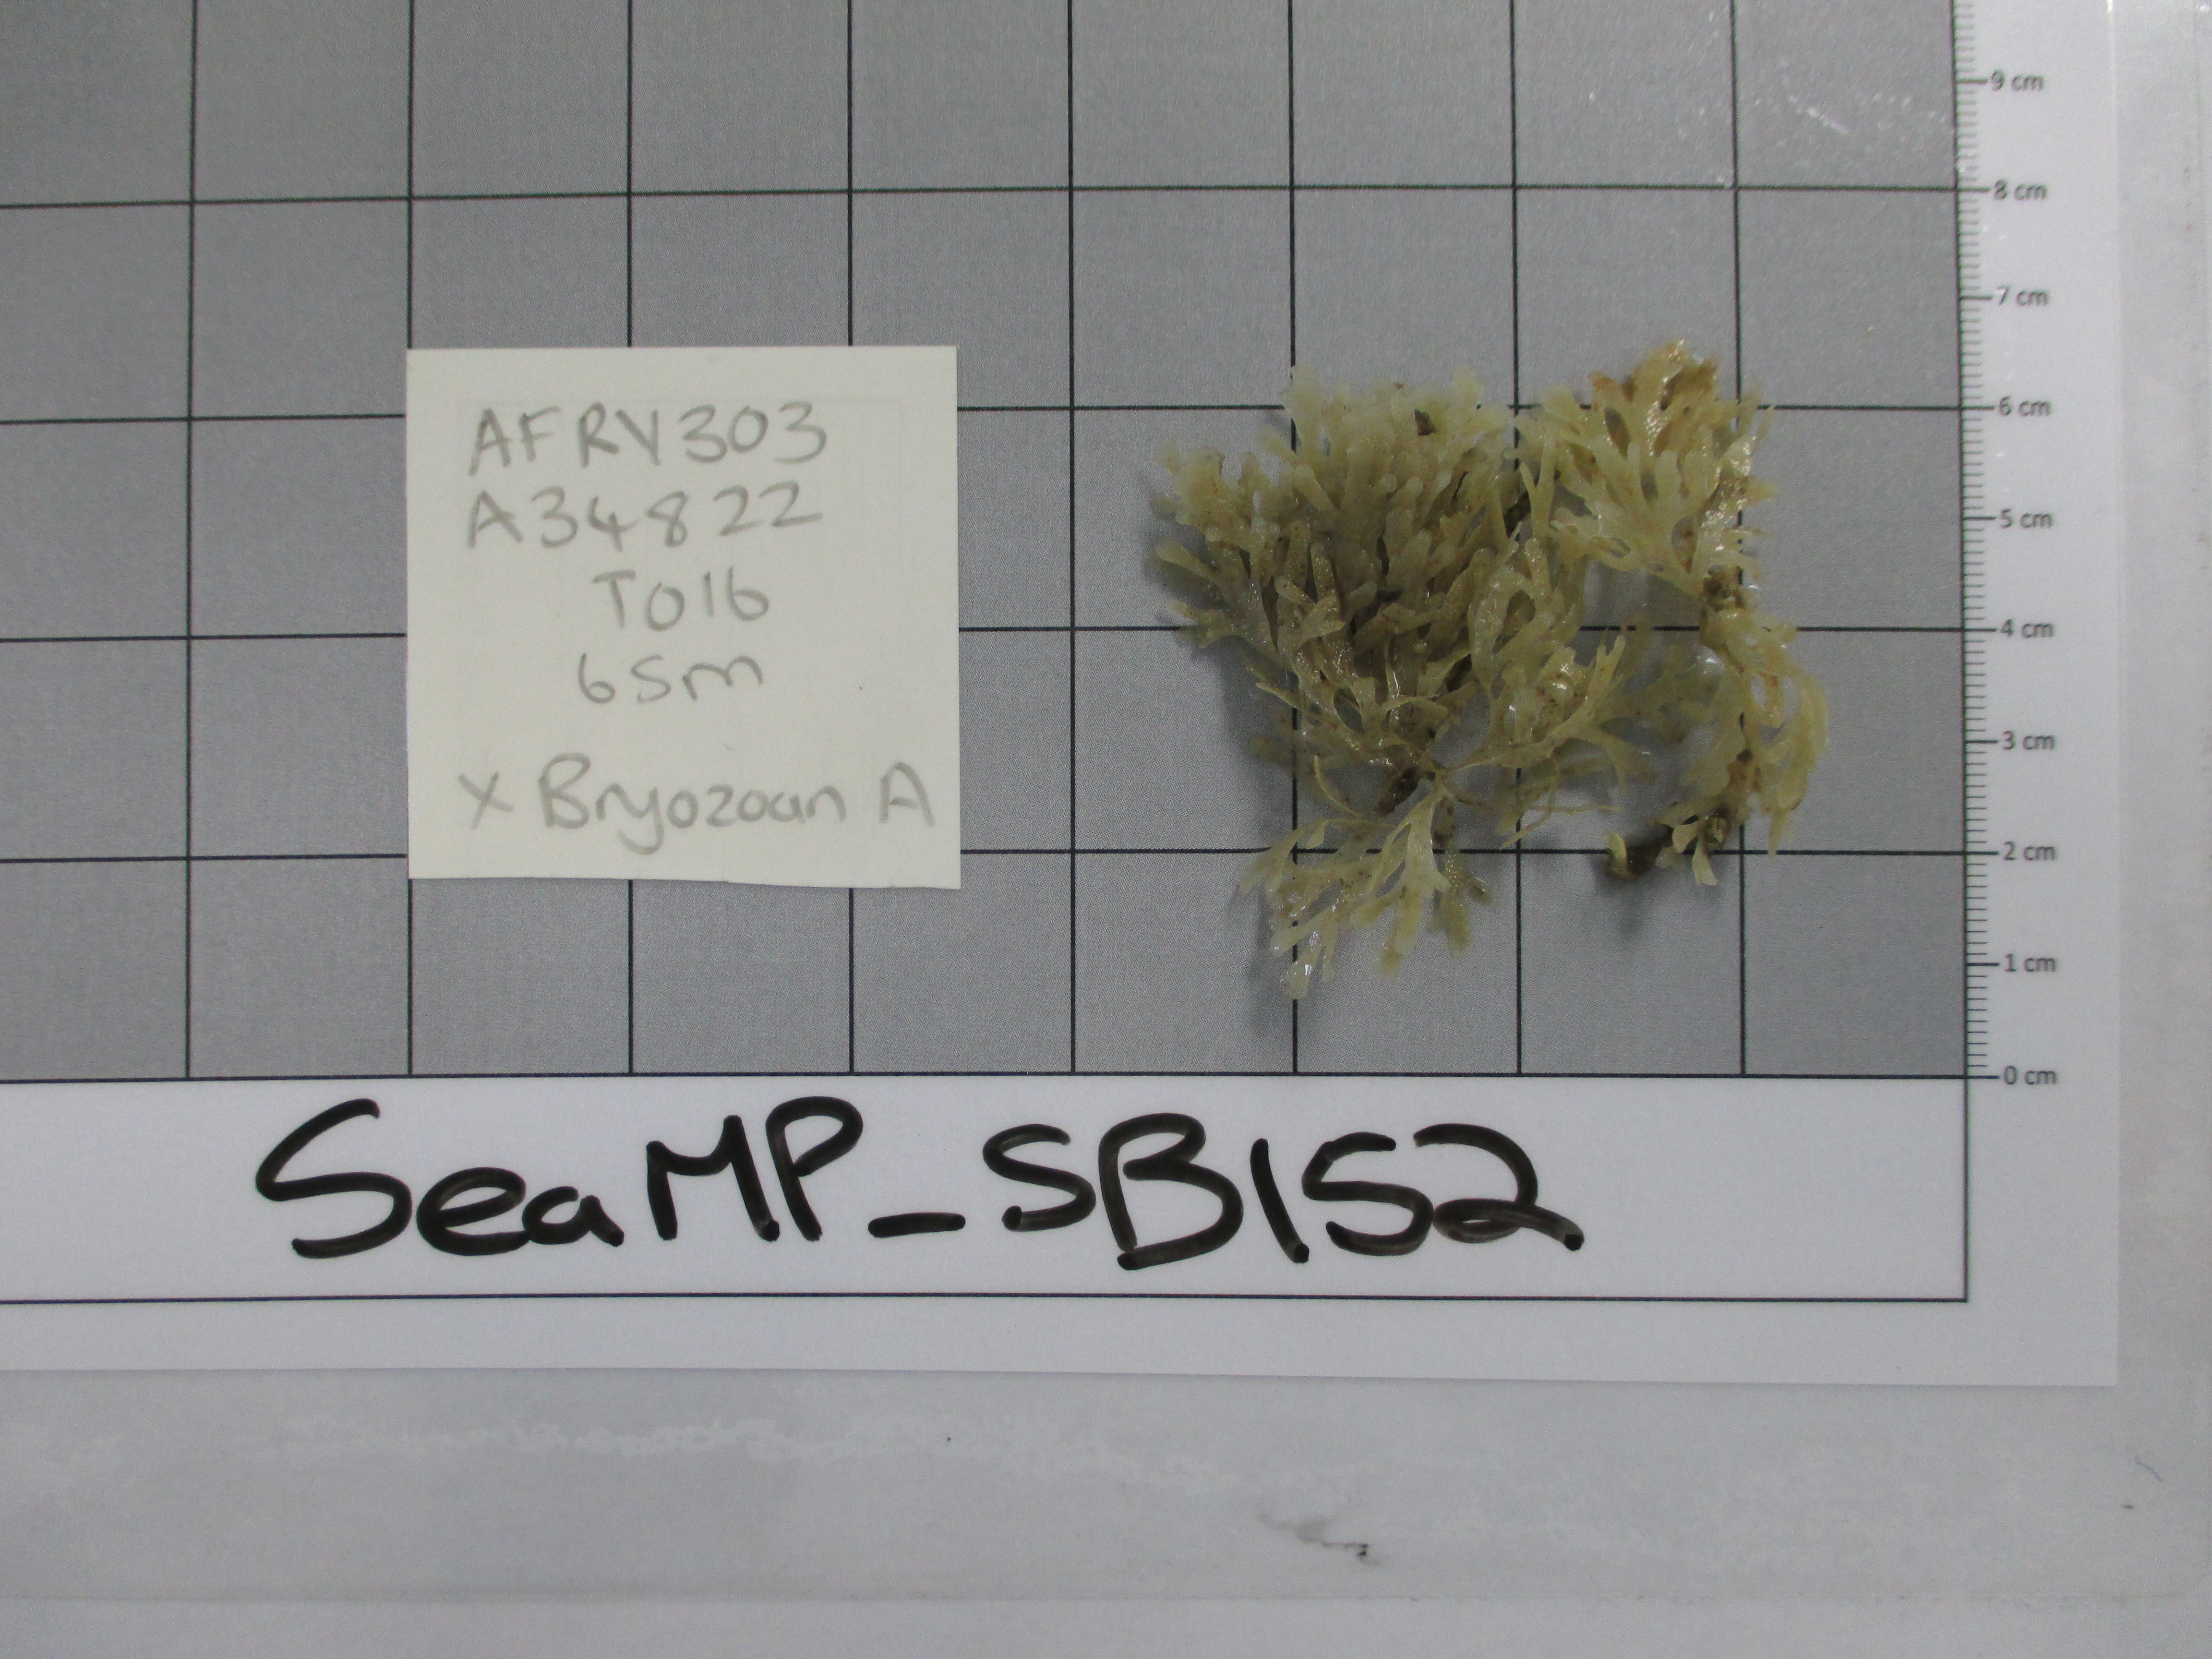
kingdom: Animalia
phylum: Bryozoa
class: Gymnolaemata
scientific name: Gymnolaemata
